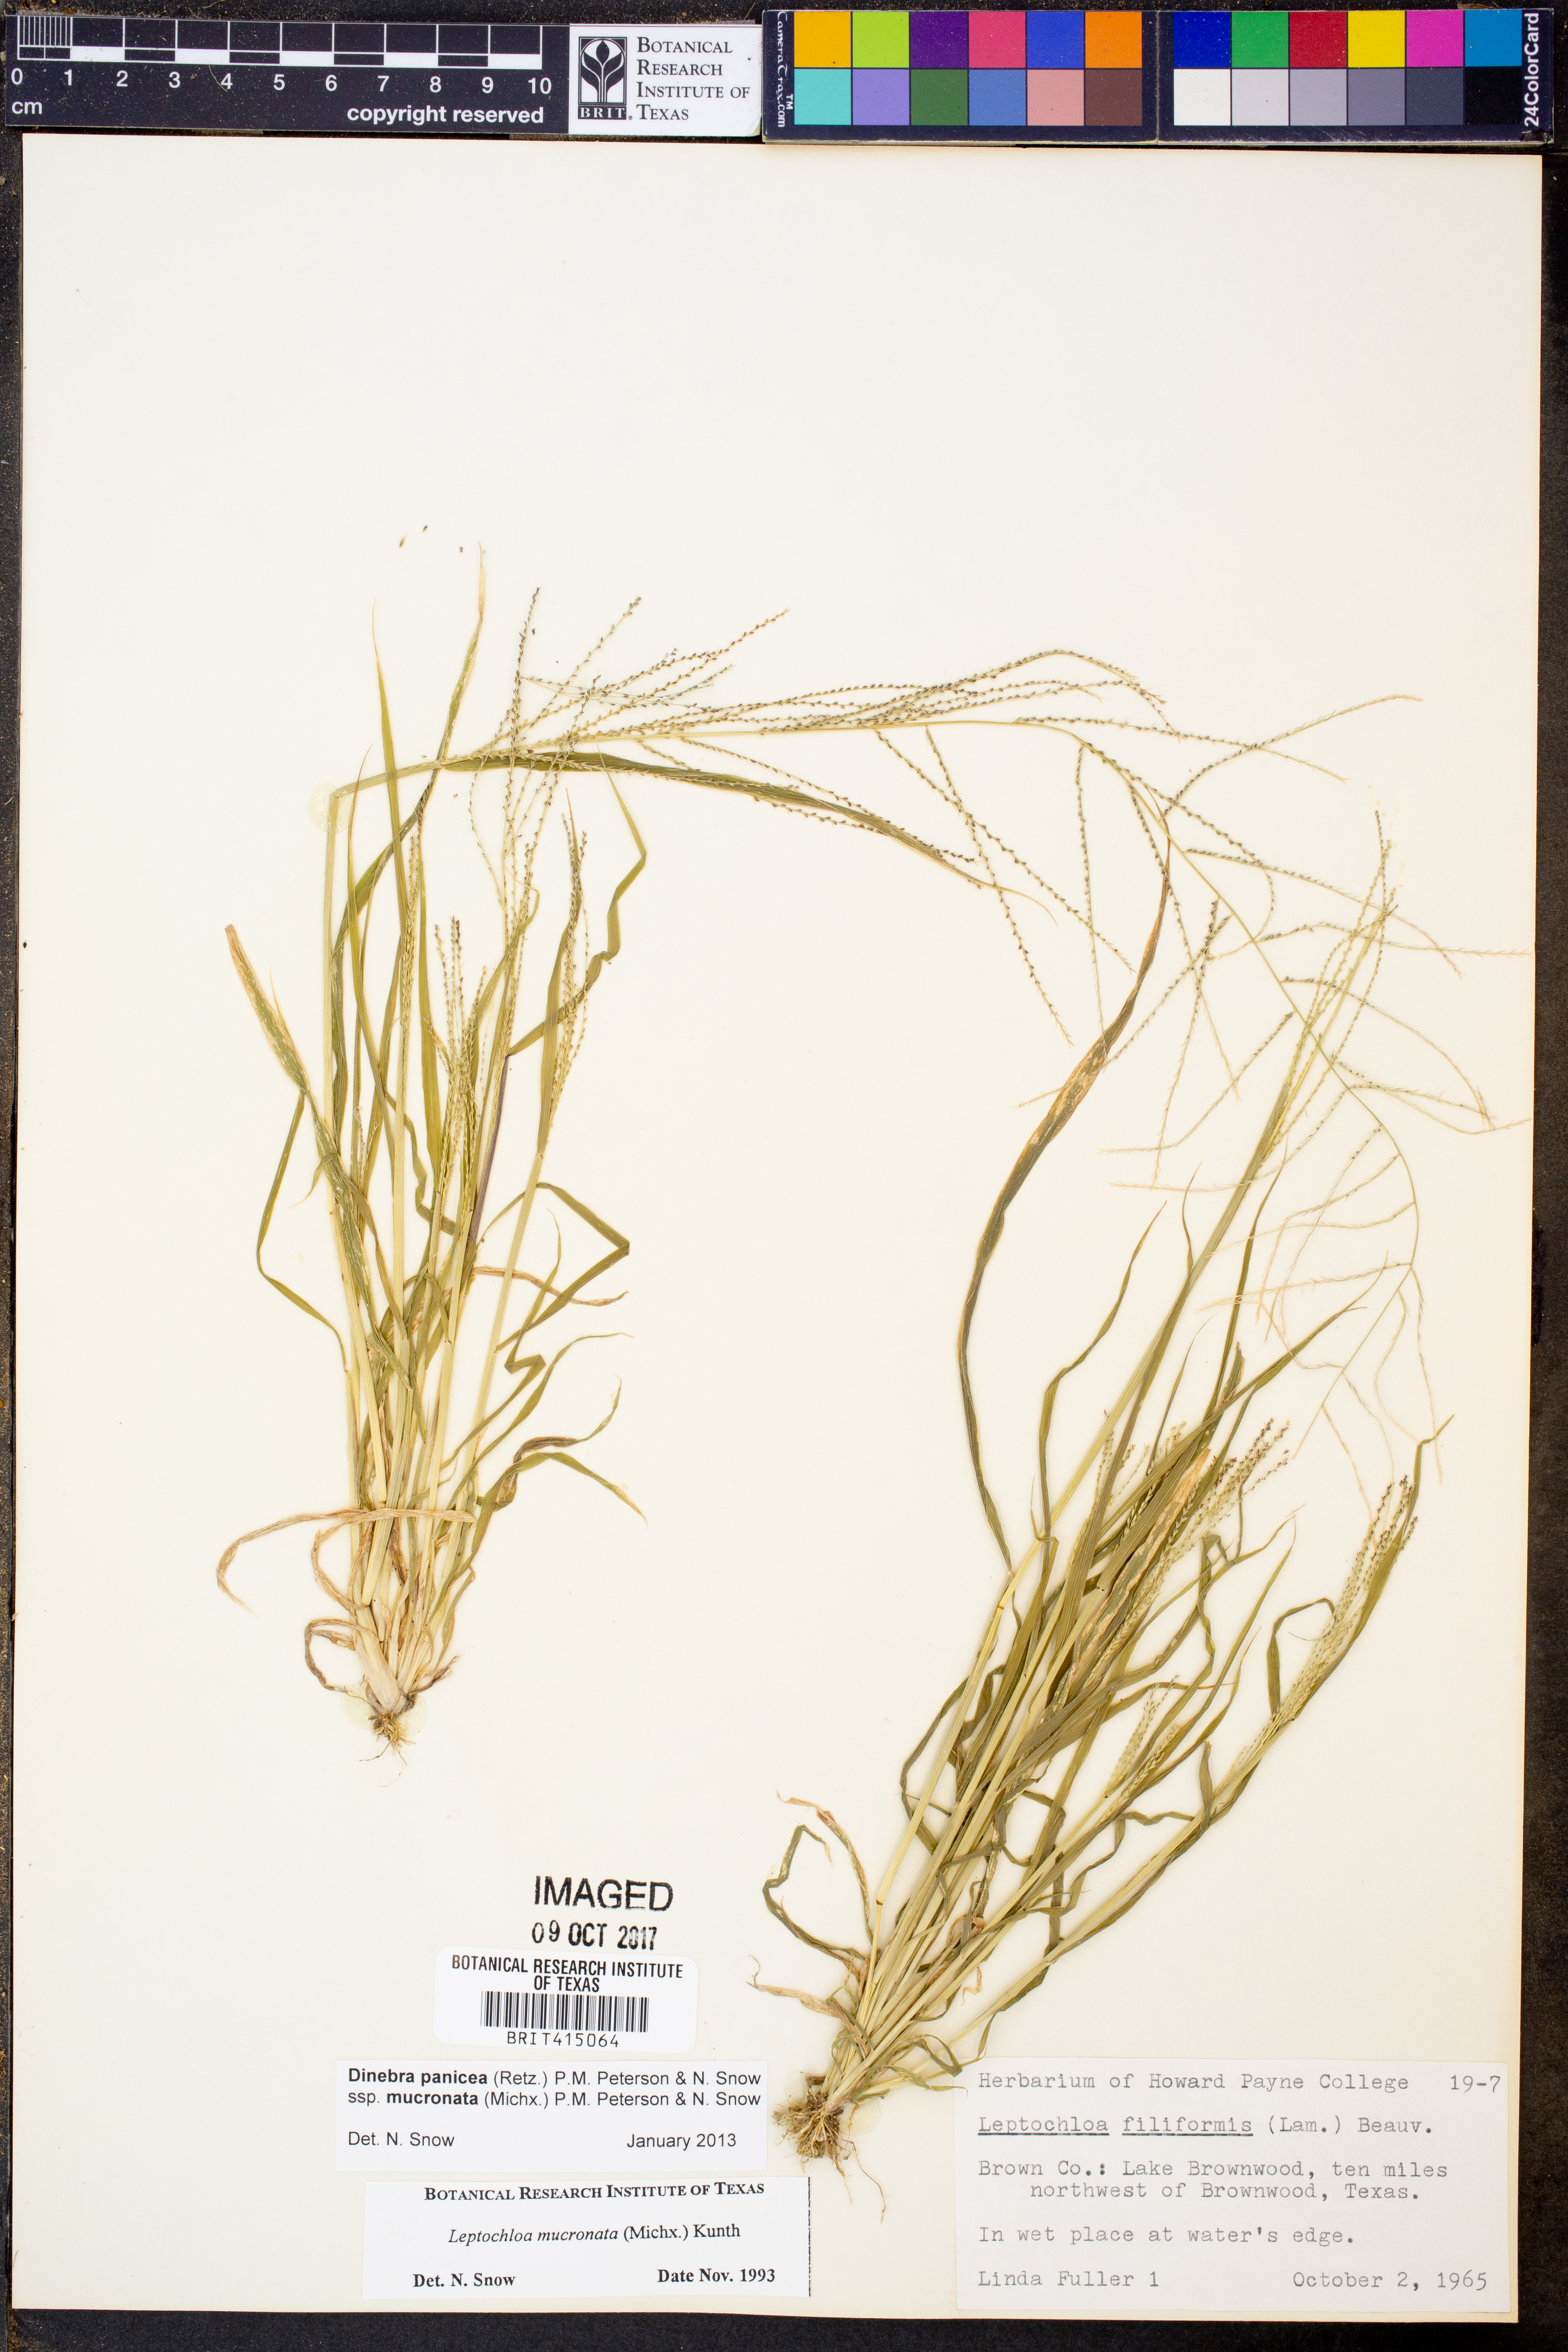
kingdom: Plantae
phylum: Tracheophyta
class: Liliopsida
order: Poales
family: Poaceae
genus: Leptochloa
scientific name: Leptochloa mucronata
